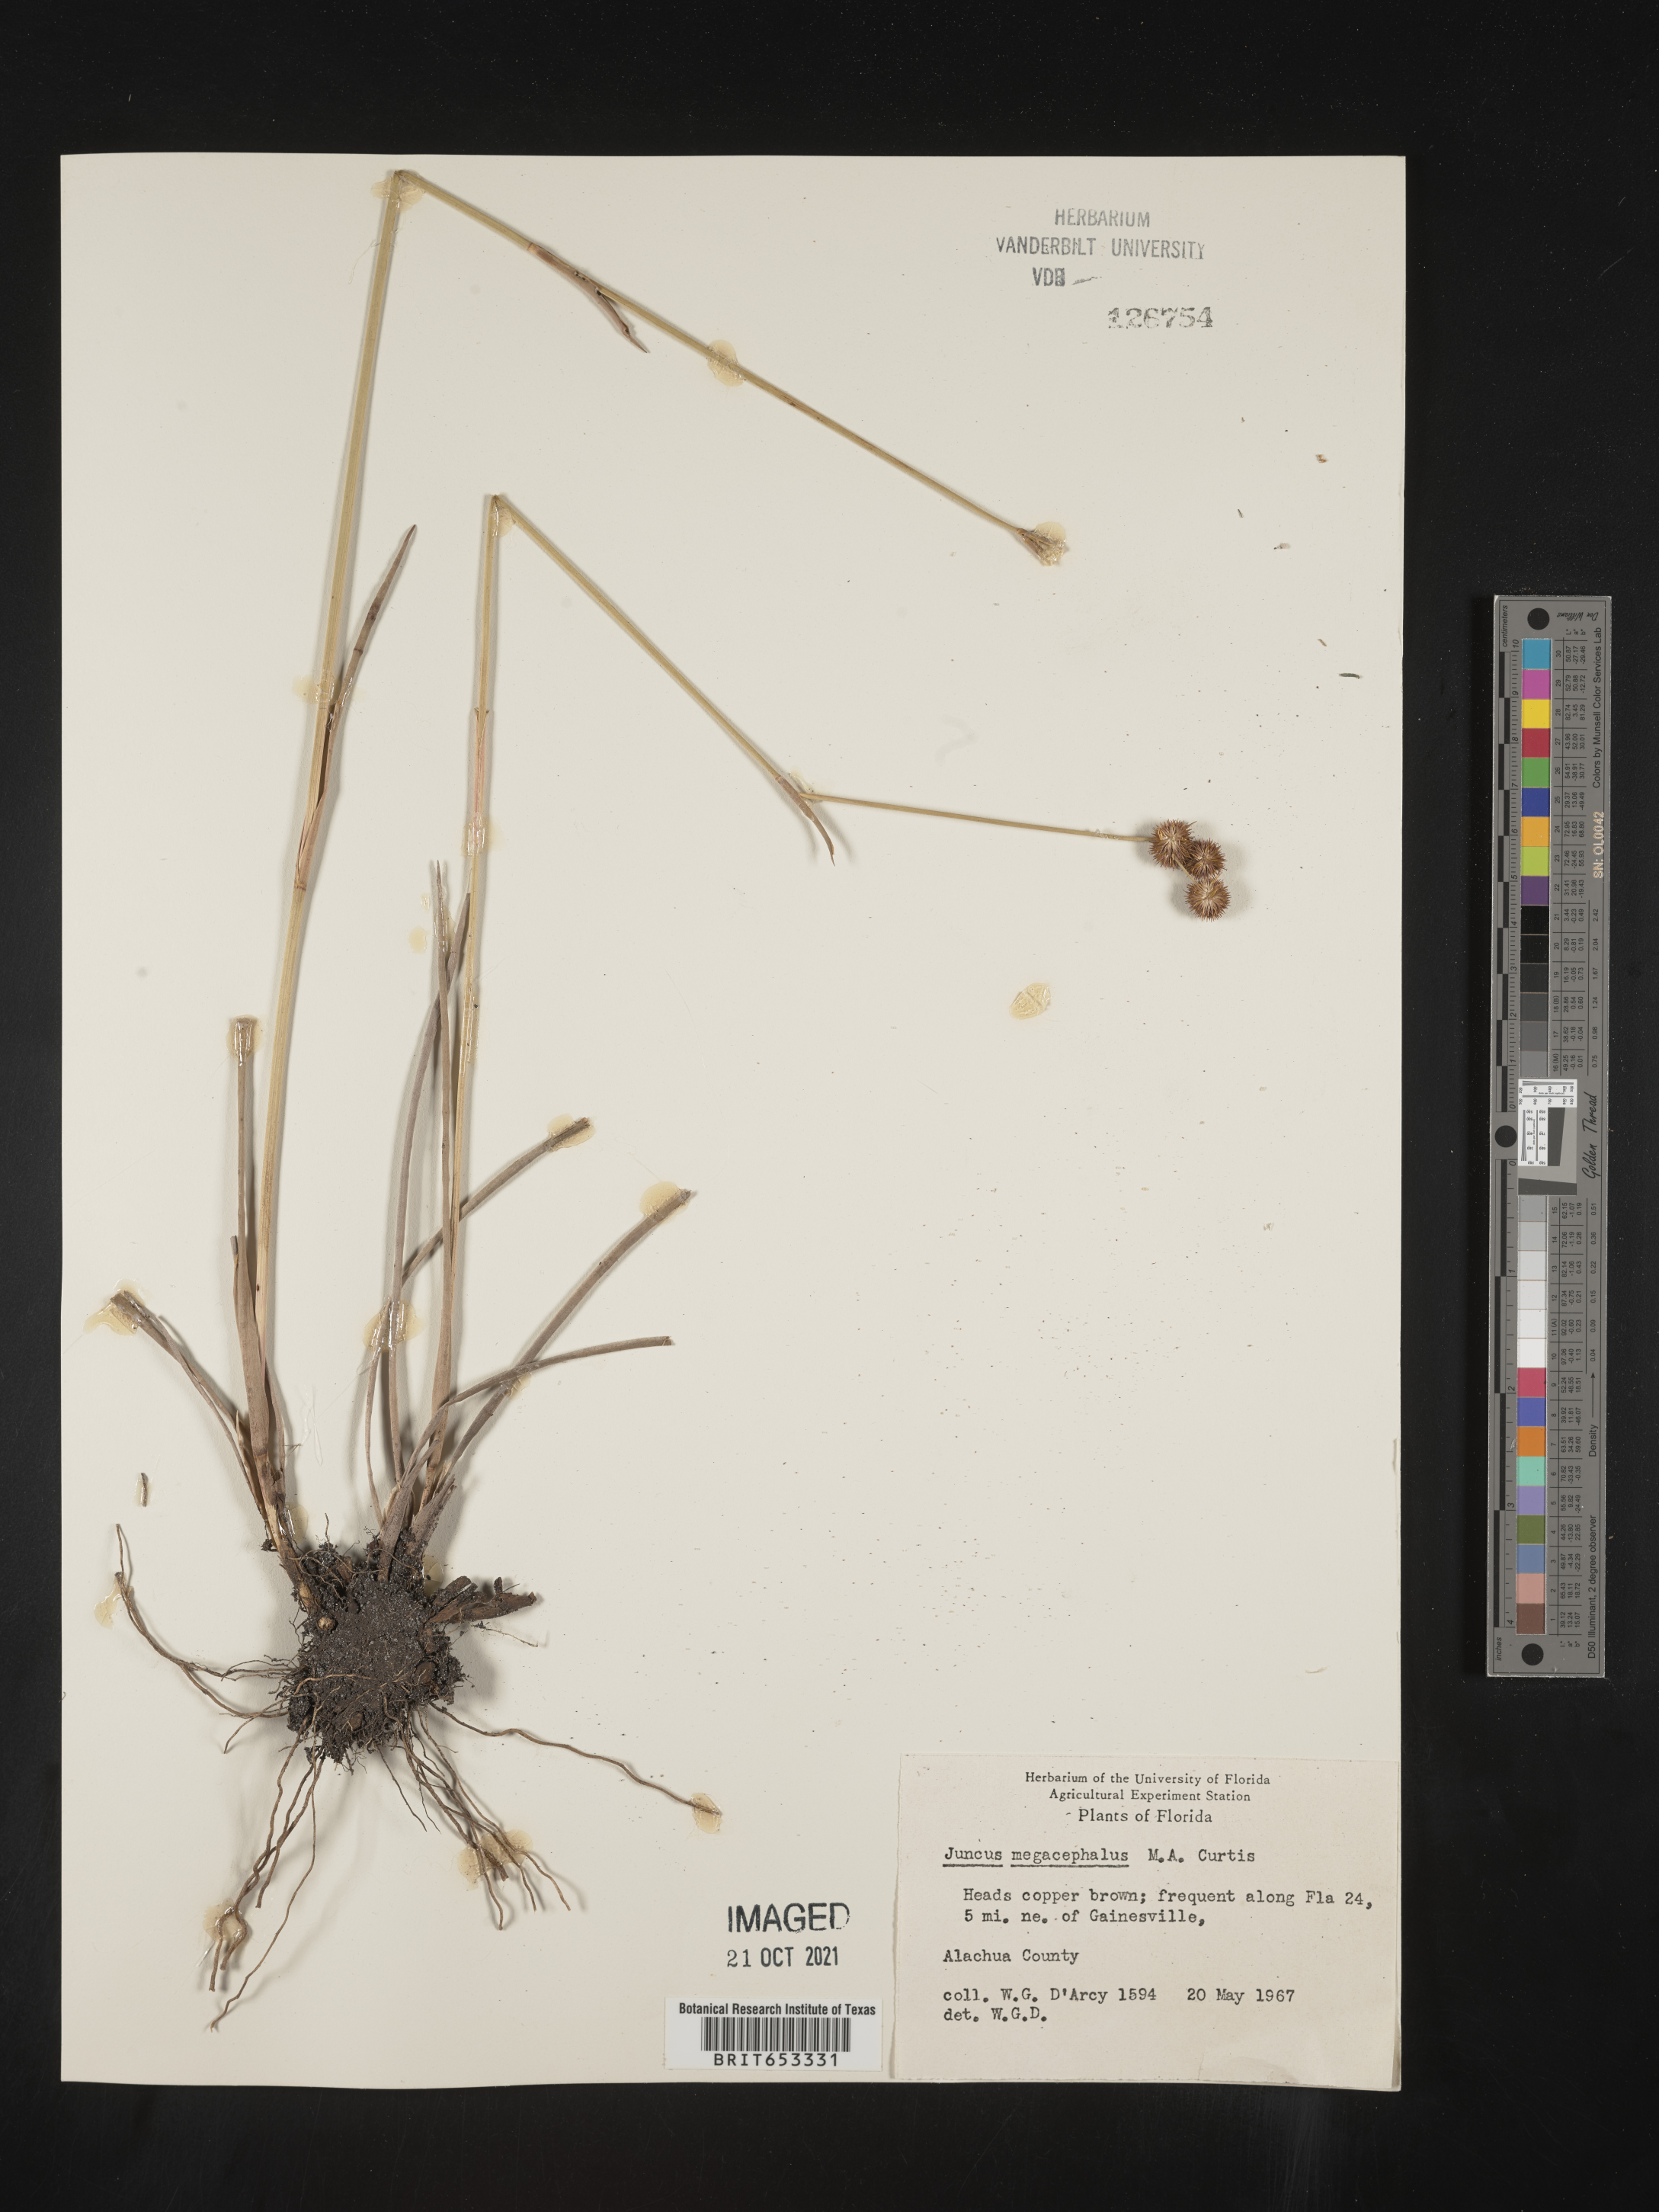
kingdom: Plantae
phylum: Tracheophyta
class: Liliopsida
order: Poales
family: Juncaceae
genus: Juncus
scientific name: Juncus megacephalus
